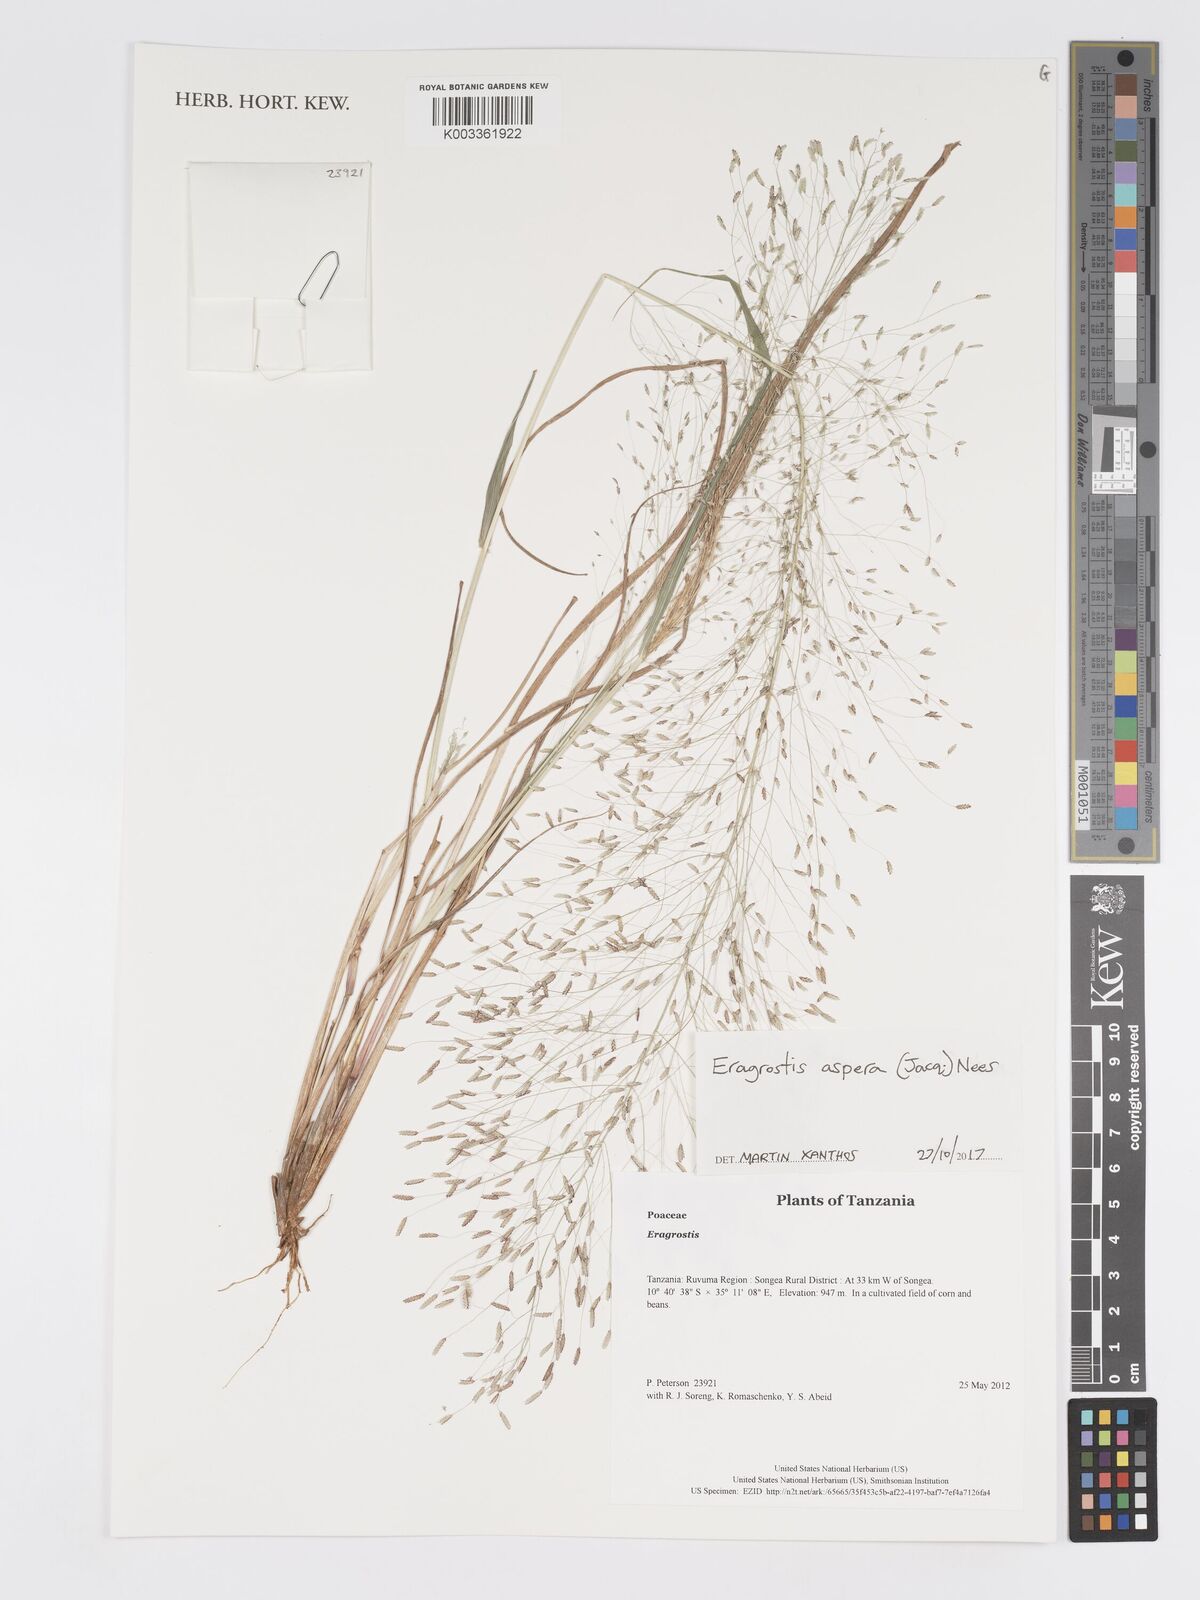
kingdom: Plantae
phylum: Tracheophyta
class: Liliopsida
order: Poales
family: Poaceae
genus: Eragrostis
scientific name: Eragrostis aspera
